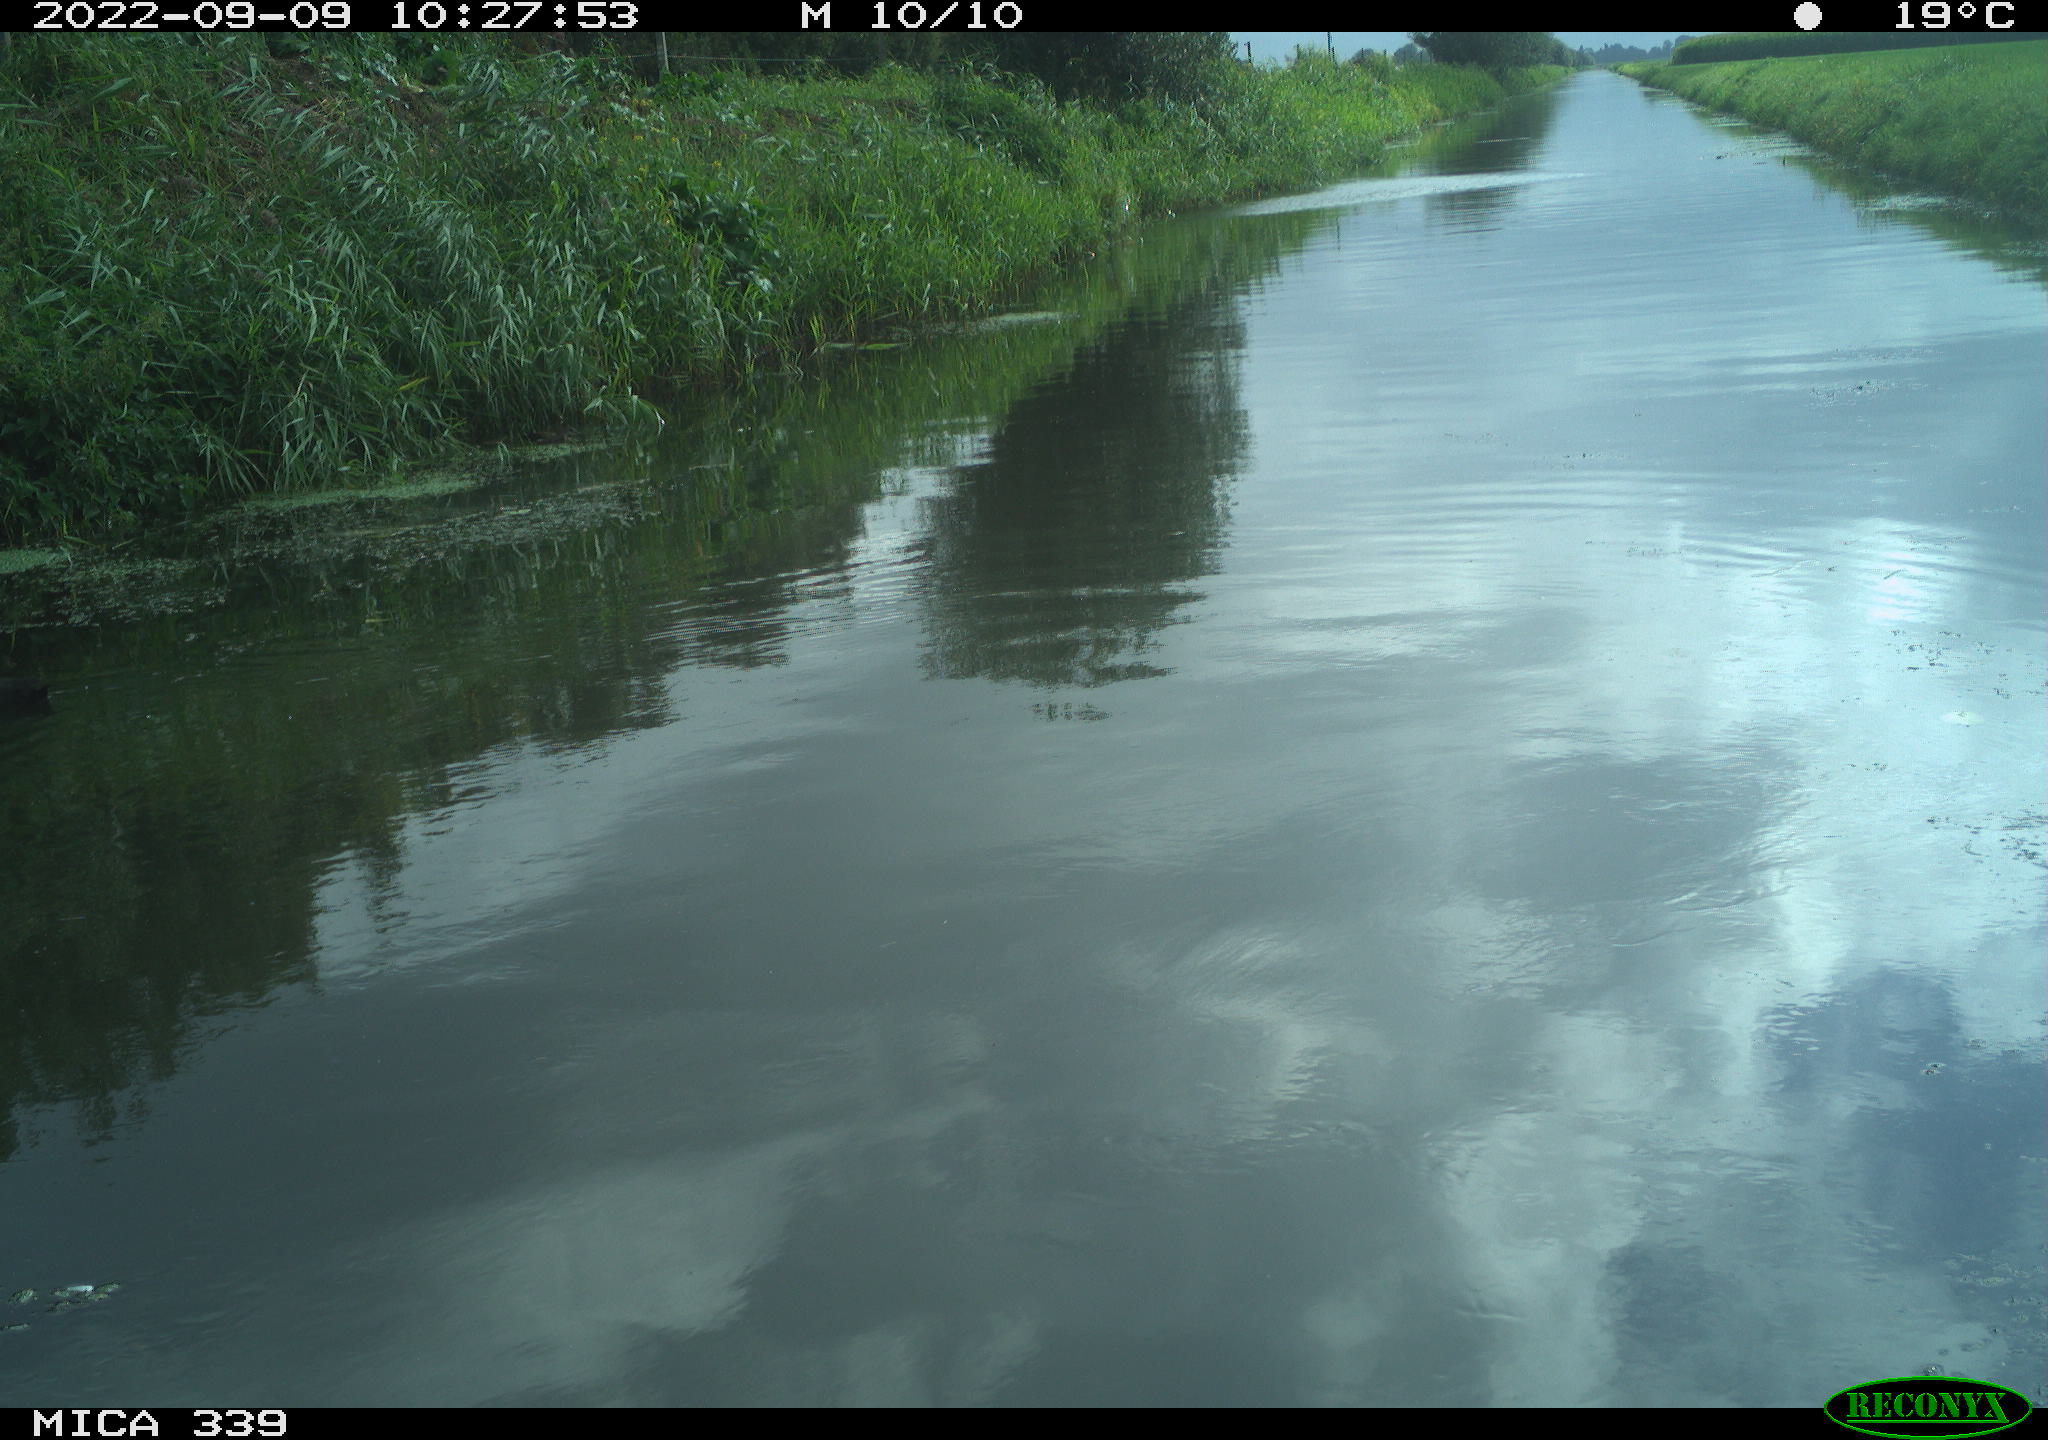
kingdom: Animalia
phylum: Chordata
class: Aves
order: Gruiformes
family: Rallidae
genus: Fulica
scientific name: Fulica atra
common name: Eurasian coot
